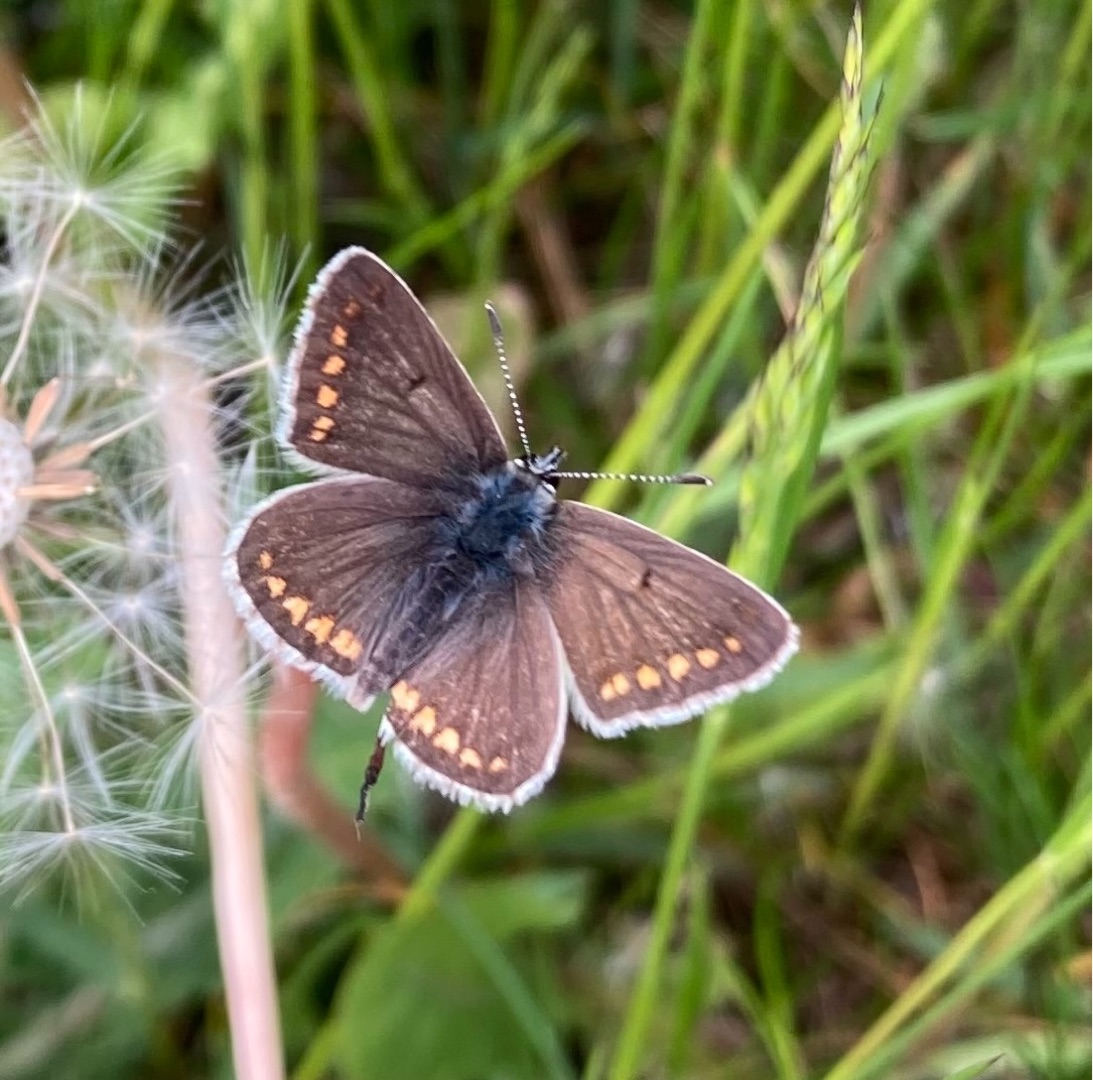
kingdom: Animalia
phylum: Arthropoda
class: Insecta
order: Lepidoptera
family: Lycaenidae
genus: Aricia
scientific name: Aricia agestis
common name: Rødplettet blåfugl
